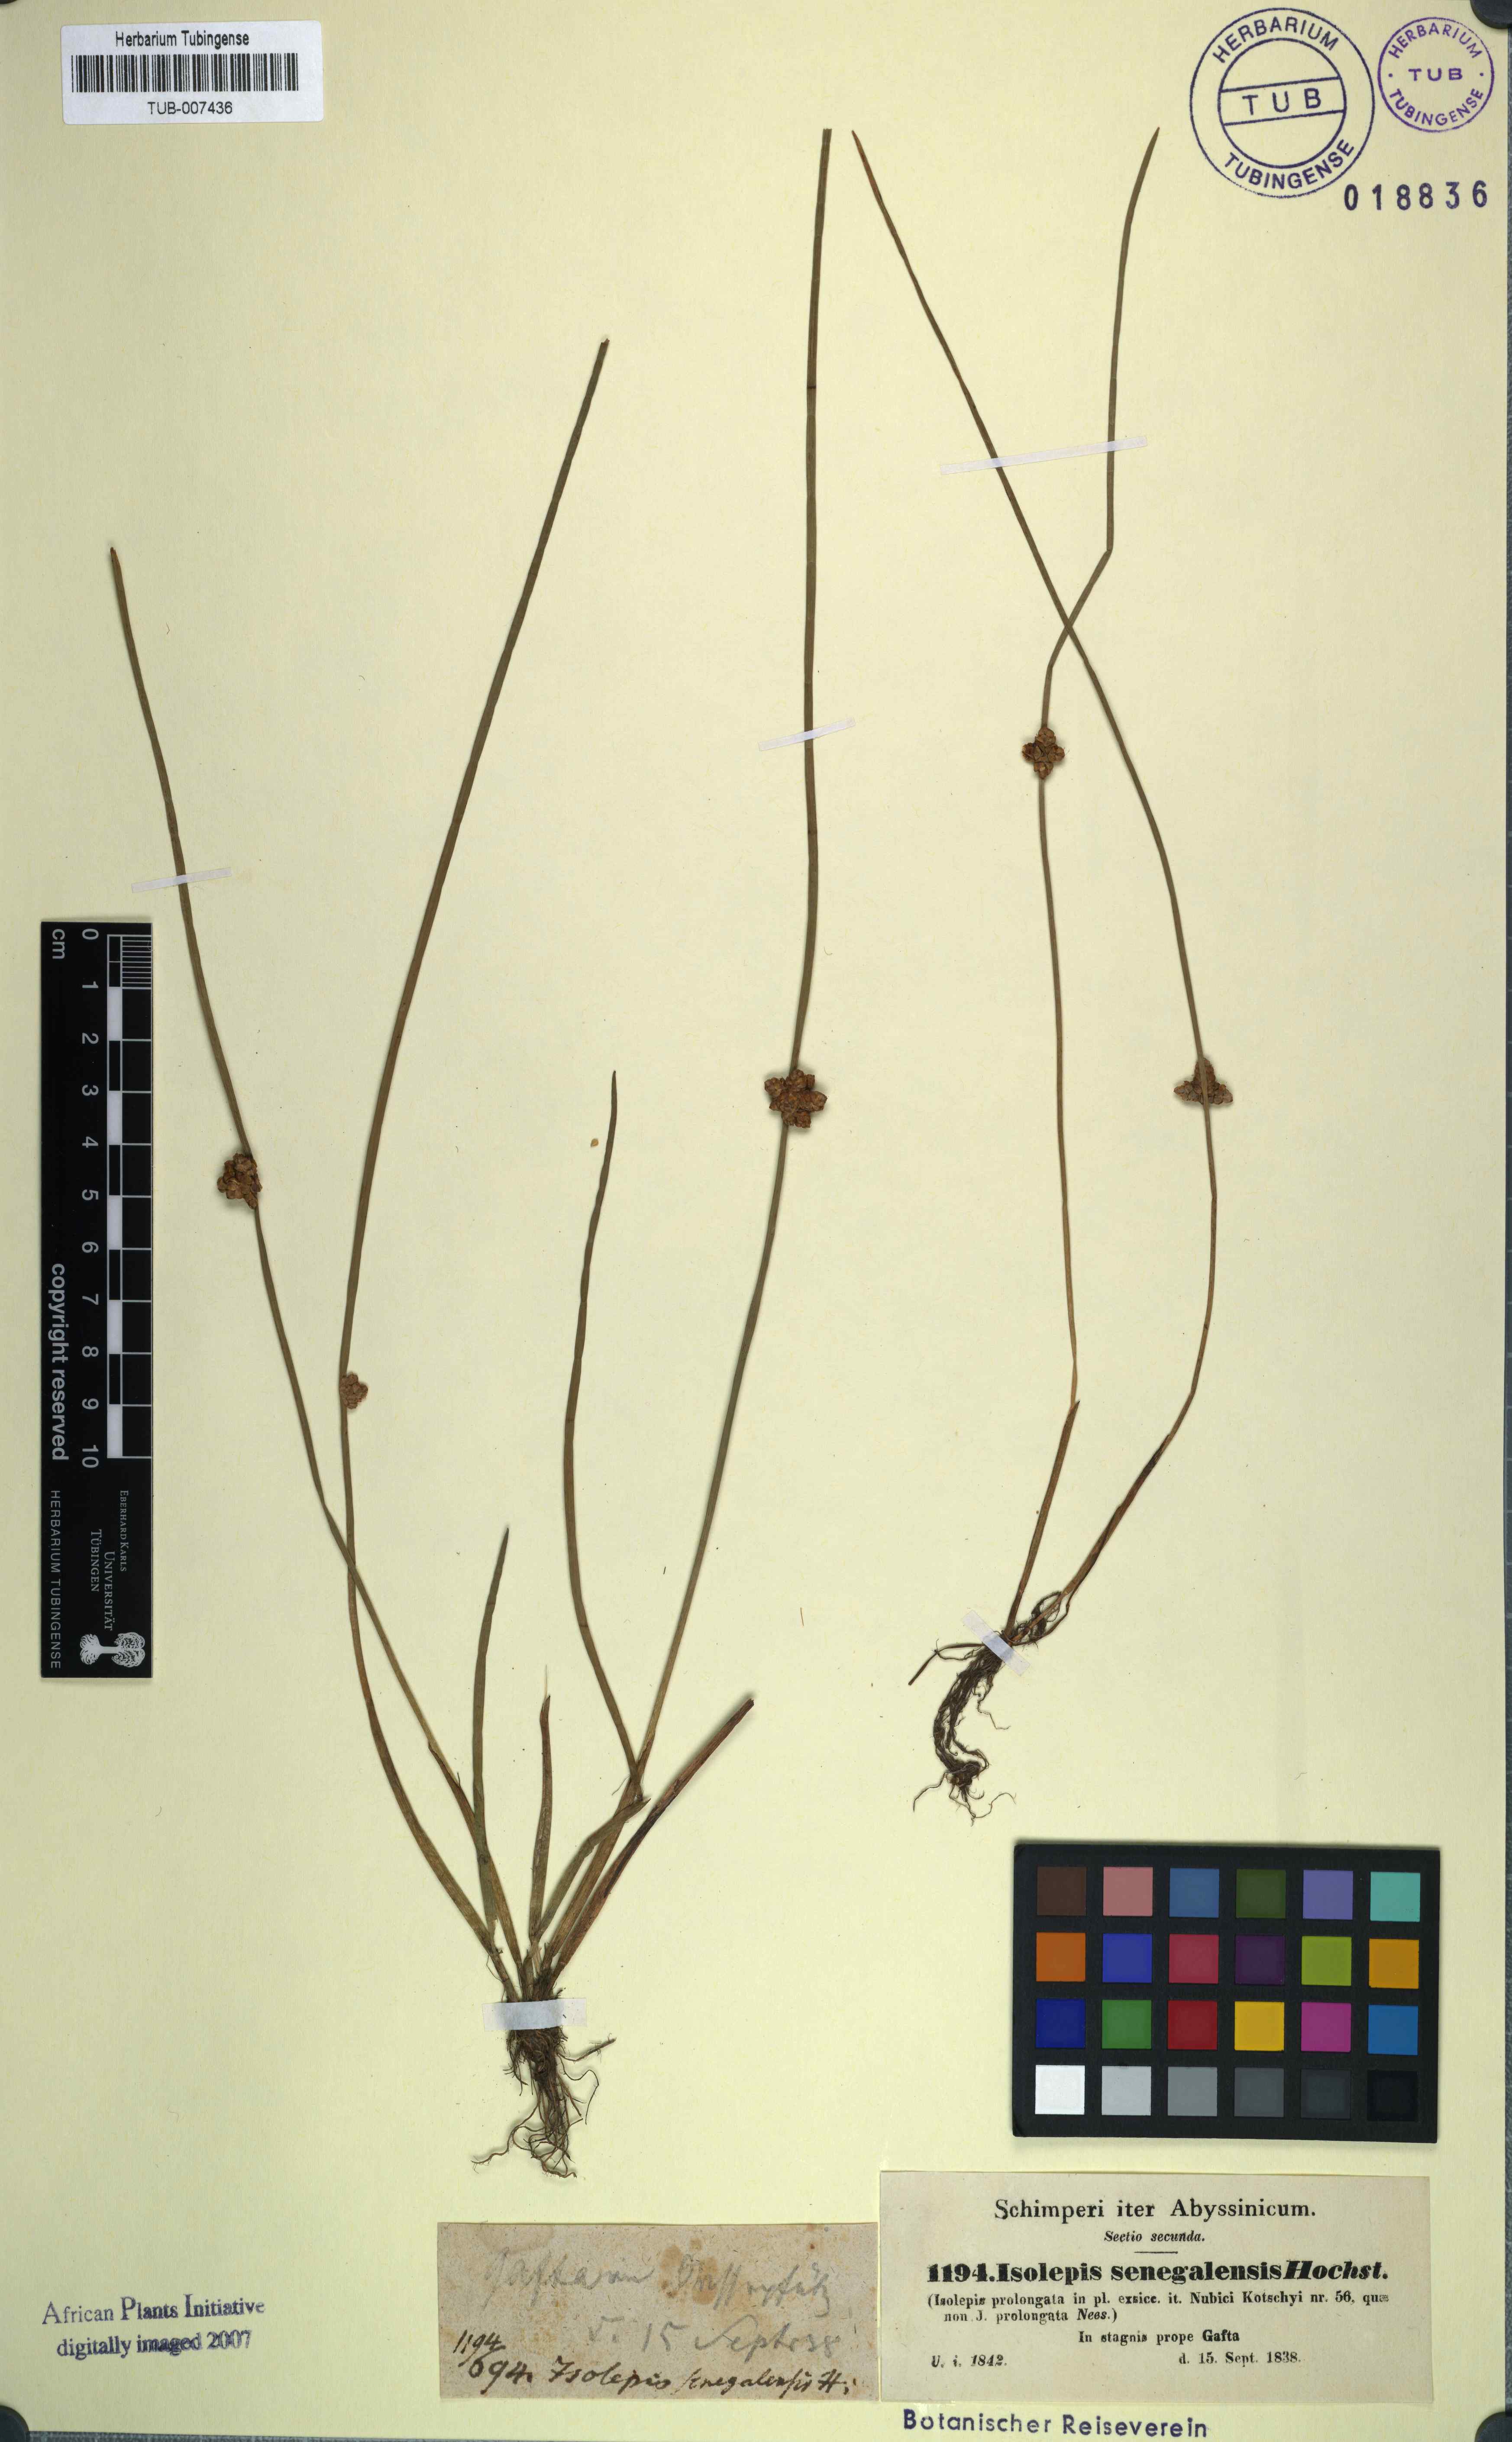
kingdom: Plantae
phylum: Tracheophyta
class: Liliopsida
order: Poales
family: Cyperaceae
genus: Schoenoplectiella
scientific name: Schoenoplectiella articulata
